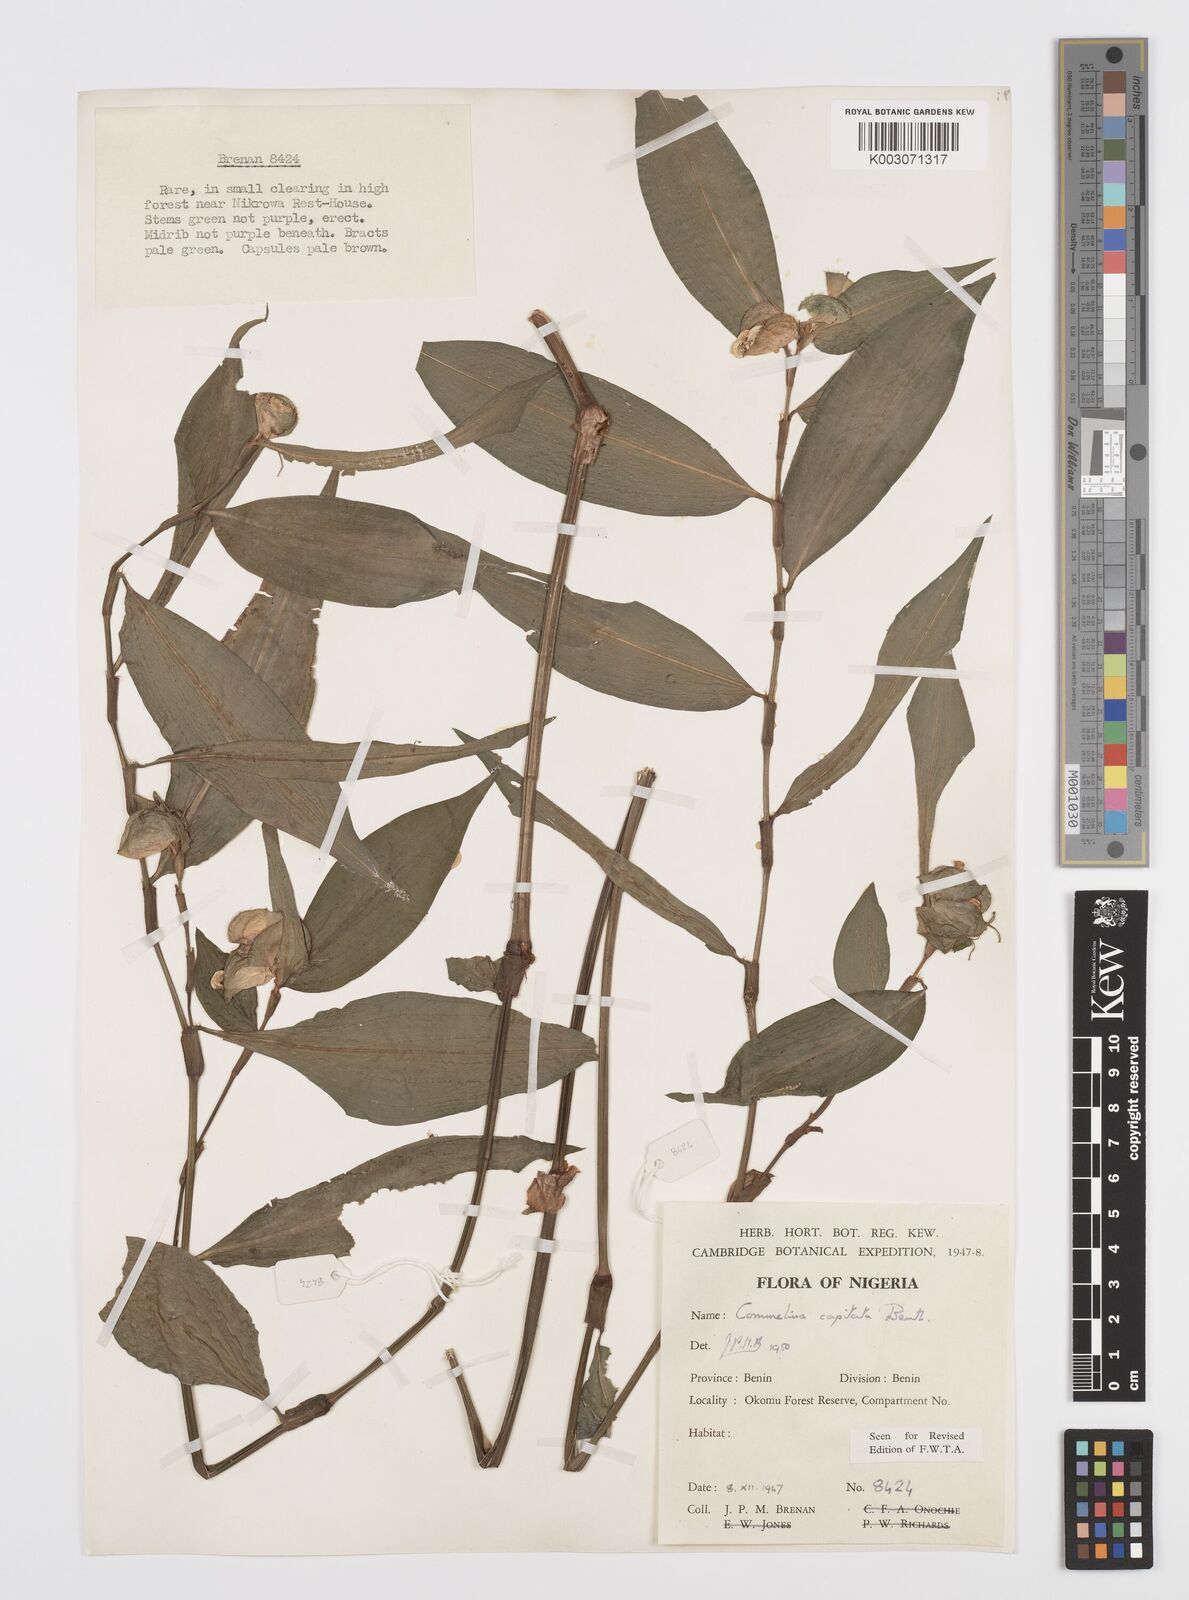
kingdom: Plantae
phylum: Tracheophyta
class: Liliopsida
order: Commelinales
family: Commelinaceae
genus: Commelina
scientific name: Commelina capitata
